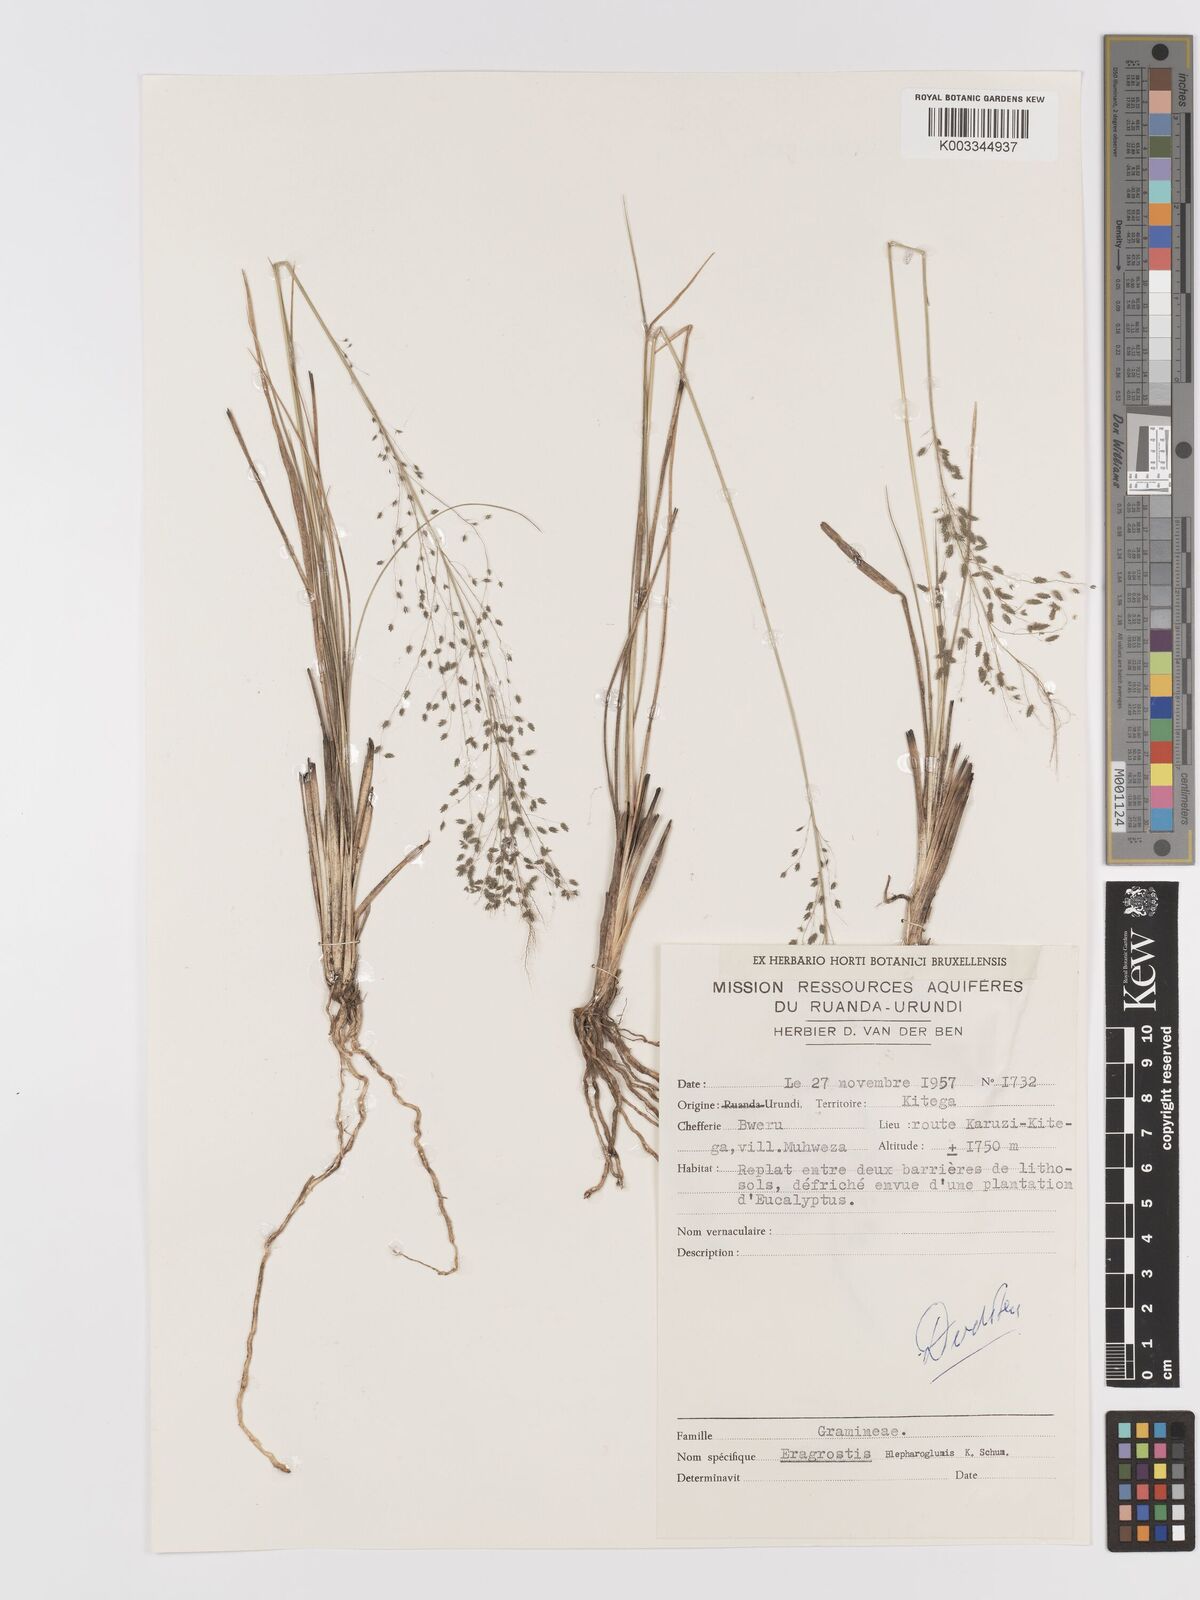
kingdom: Plantae
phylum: Tracheophyta
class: Liliopsida
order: Poales
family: Poaceae
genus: Eragrostis
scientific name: Eragrostis olivacea
